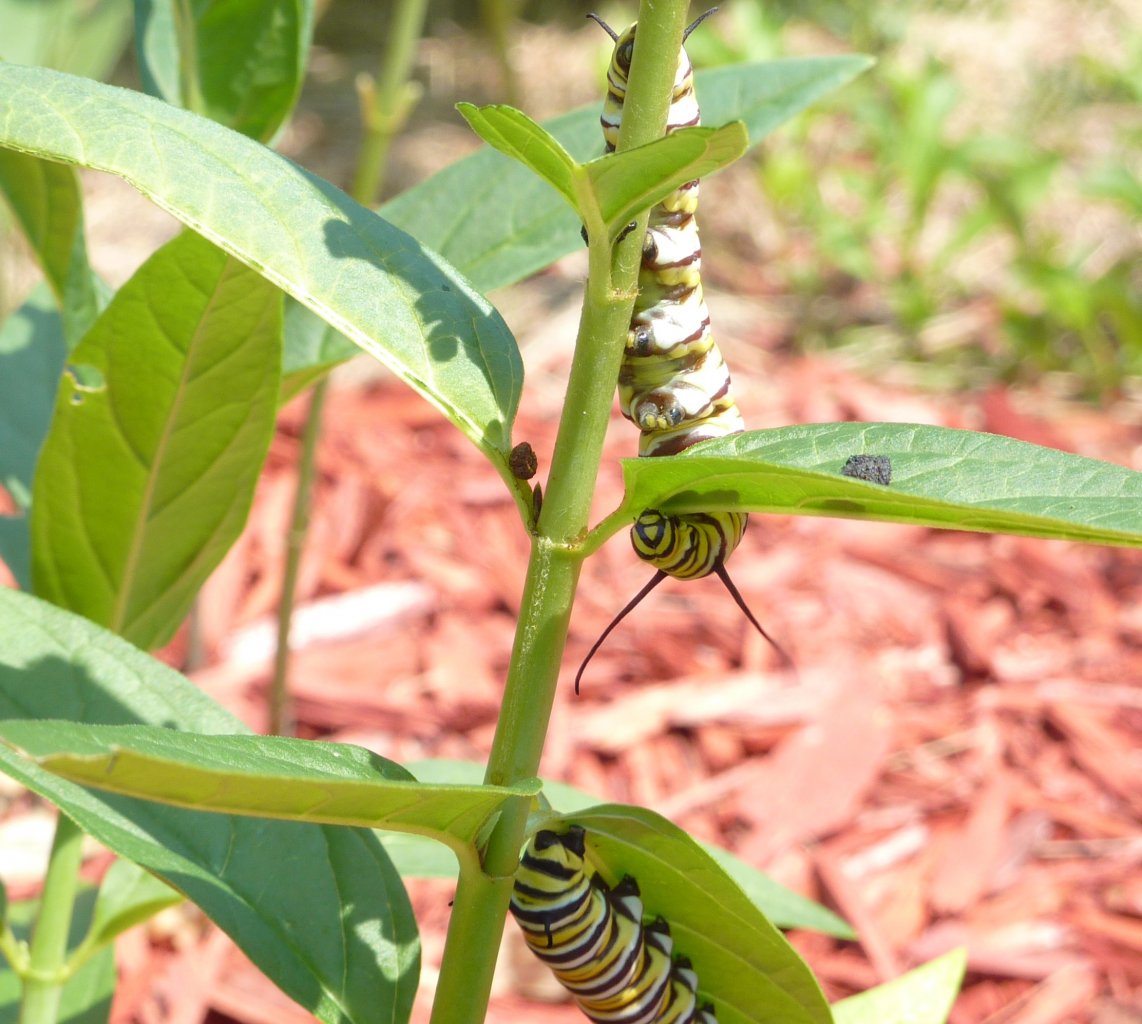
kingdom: Animalia
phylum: Arthropoda
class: Insecta
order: Lepidoptera
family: Nymphalidae
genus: Danaus
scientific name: Danaus plexippus
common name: Monarch
